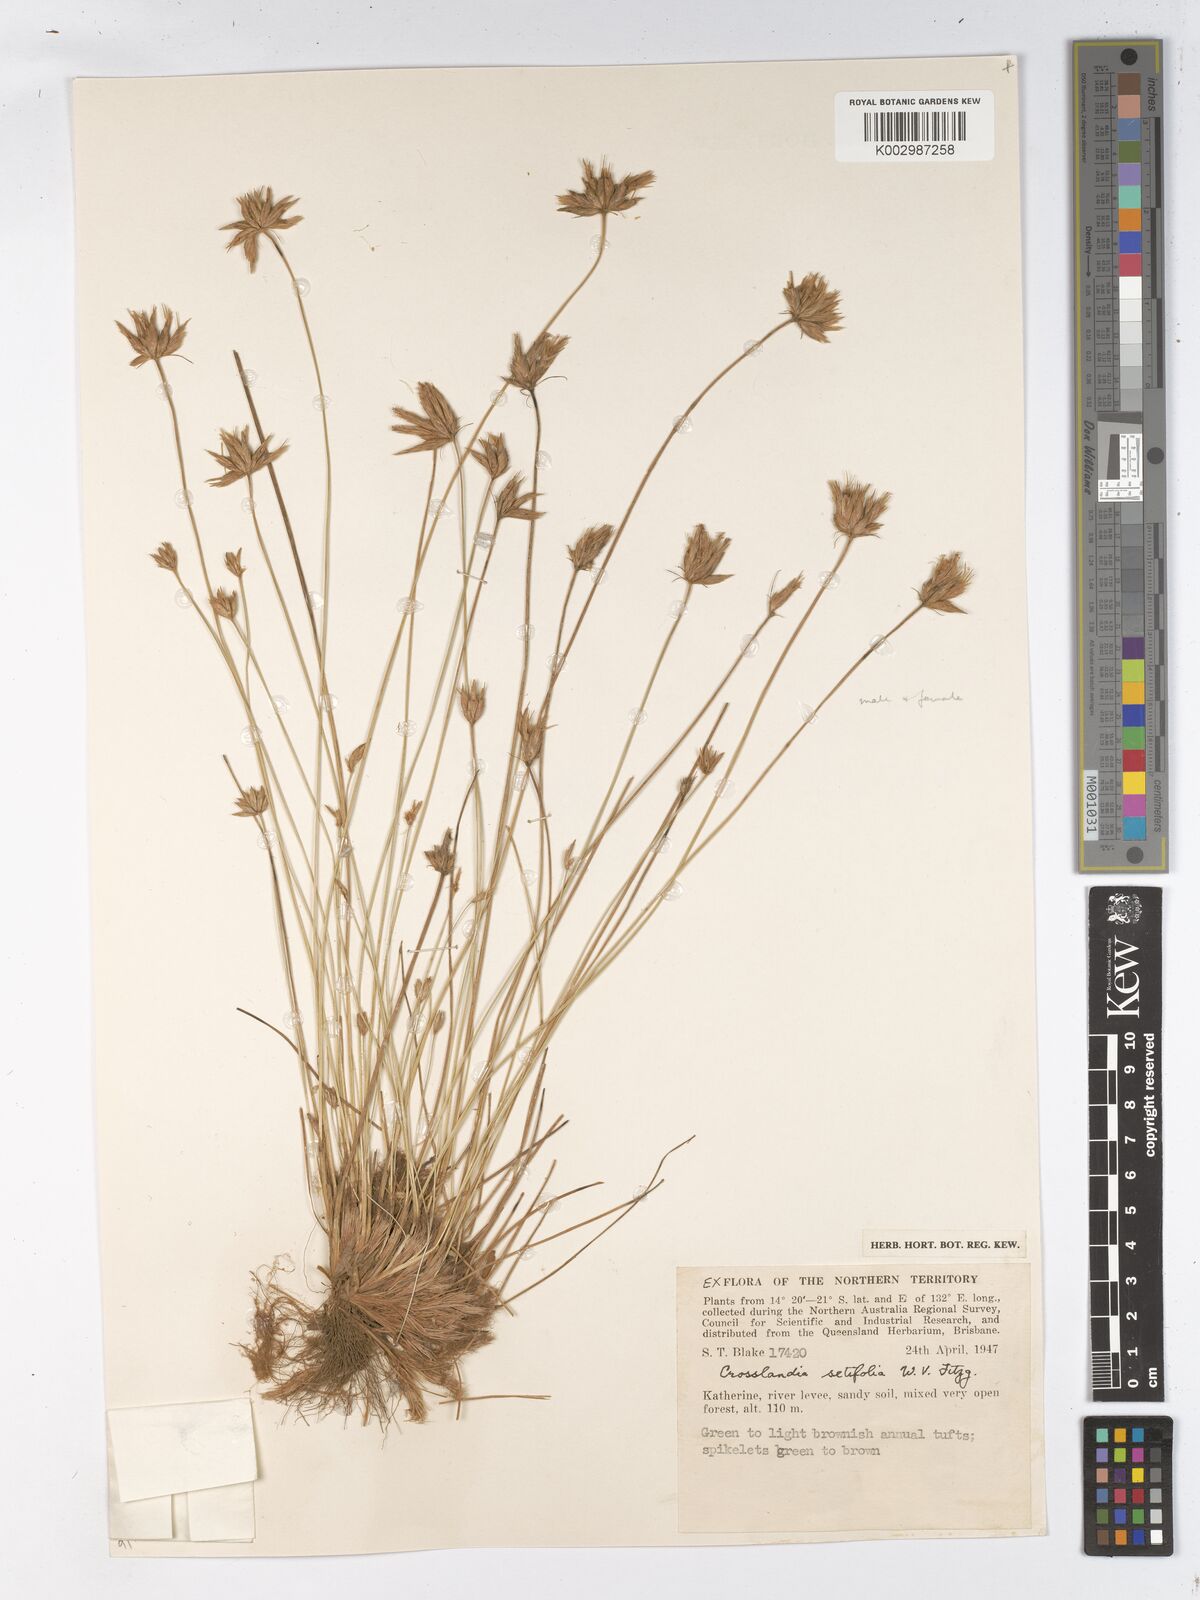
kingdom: Plantae
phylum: Tracheophyta
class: Liliopsida
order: Poales
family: Cyperaceae
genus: Fimbristylis
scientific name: Fimbristylis crosslandii
